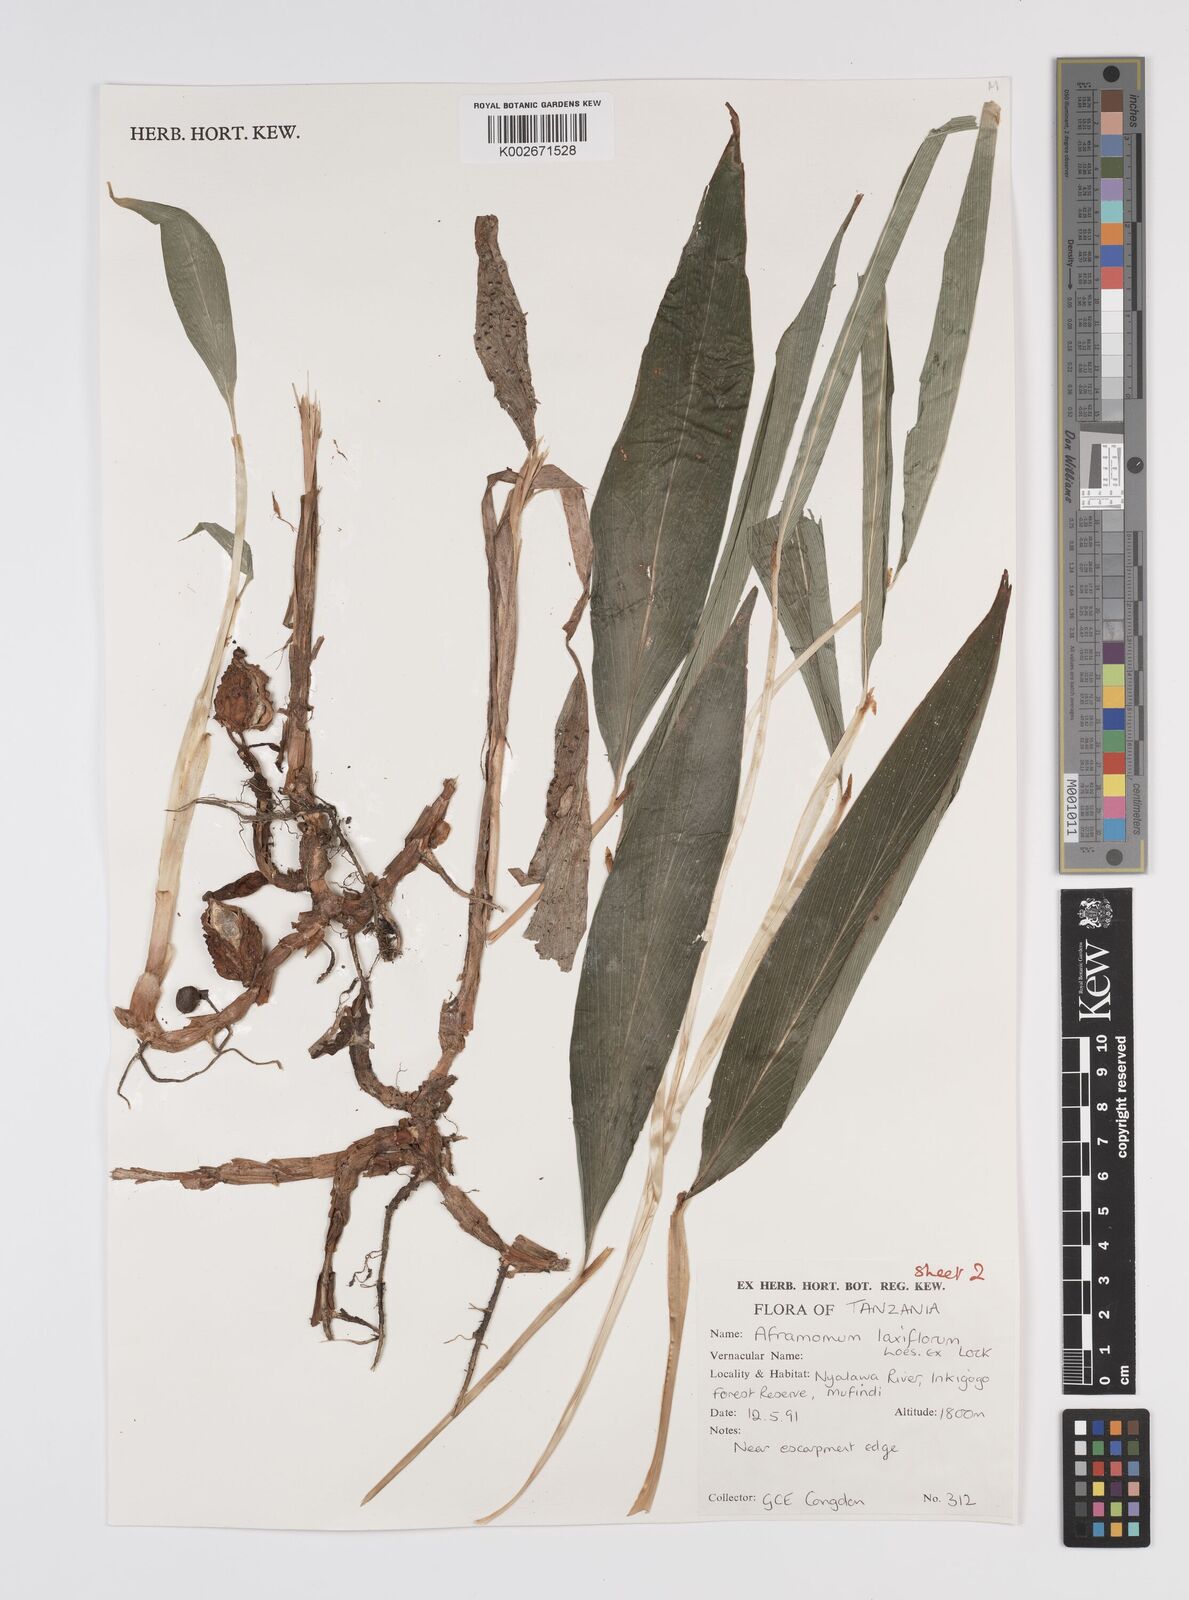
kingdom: Plantae
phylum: Tracheophyta
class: Liliopsida
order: Zingiberales
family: Zingiberaceae
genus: Aframomum
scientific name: Aframomum laxiflorum
